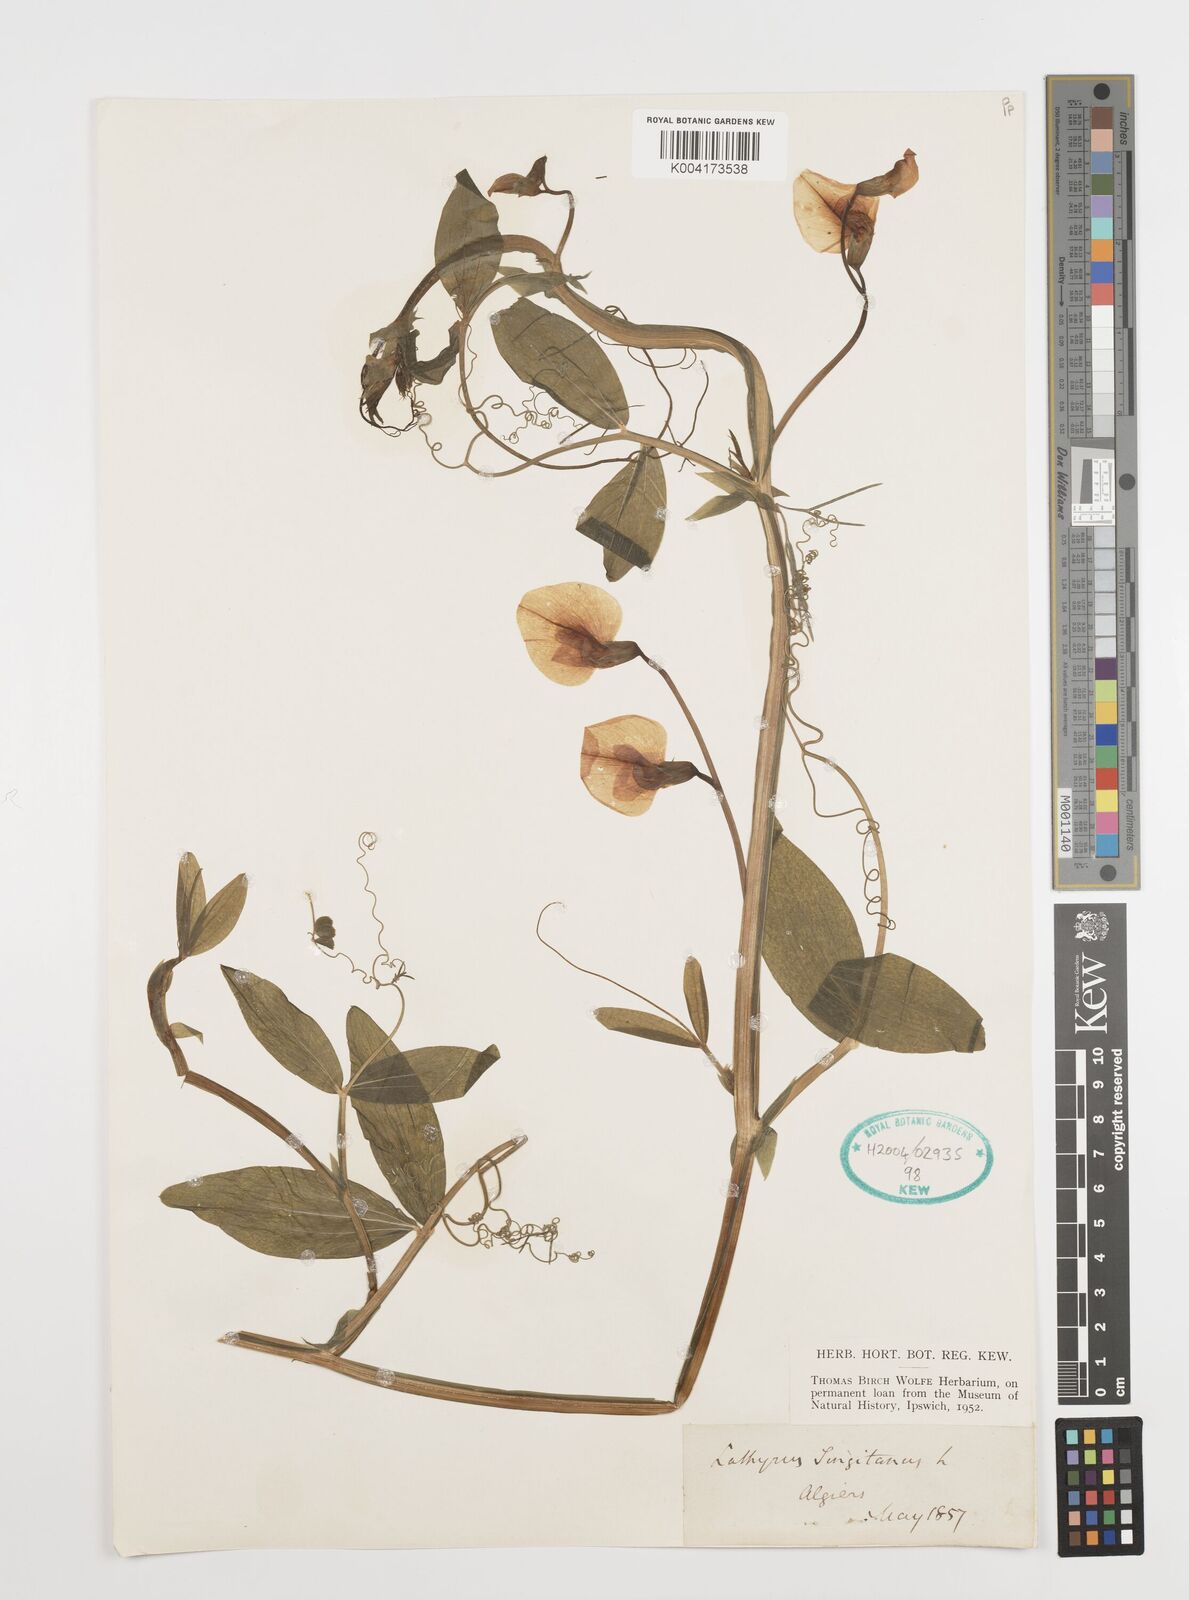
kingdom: Plantae
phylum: Tracheophyta
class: Magnoliopsida
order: Fabales
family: Fabaceae
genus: Lathyrus
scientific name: Lathyrus tingitanus
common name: Tangier pea
